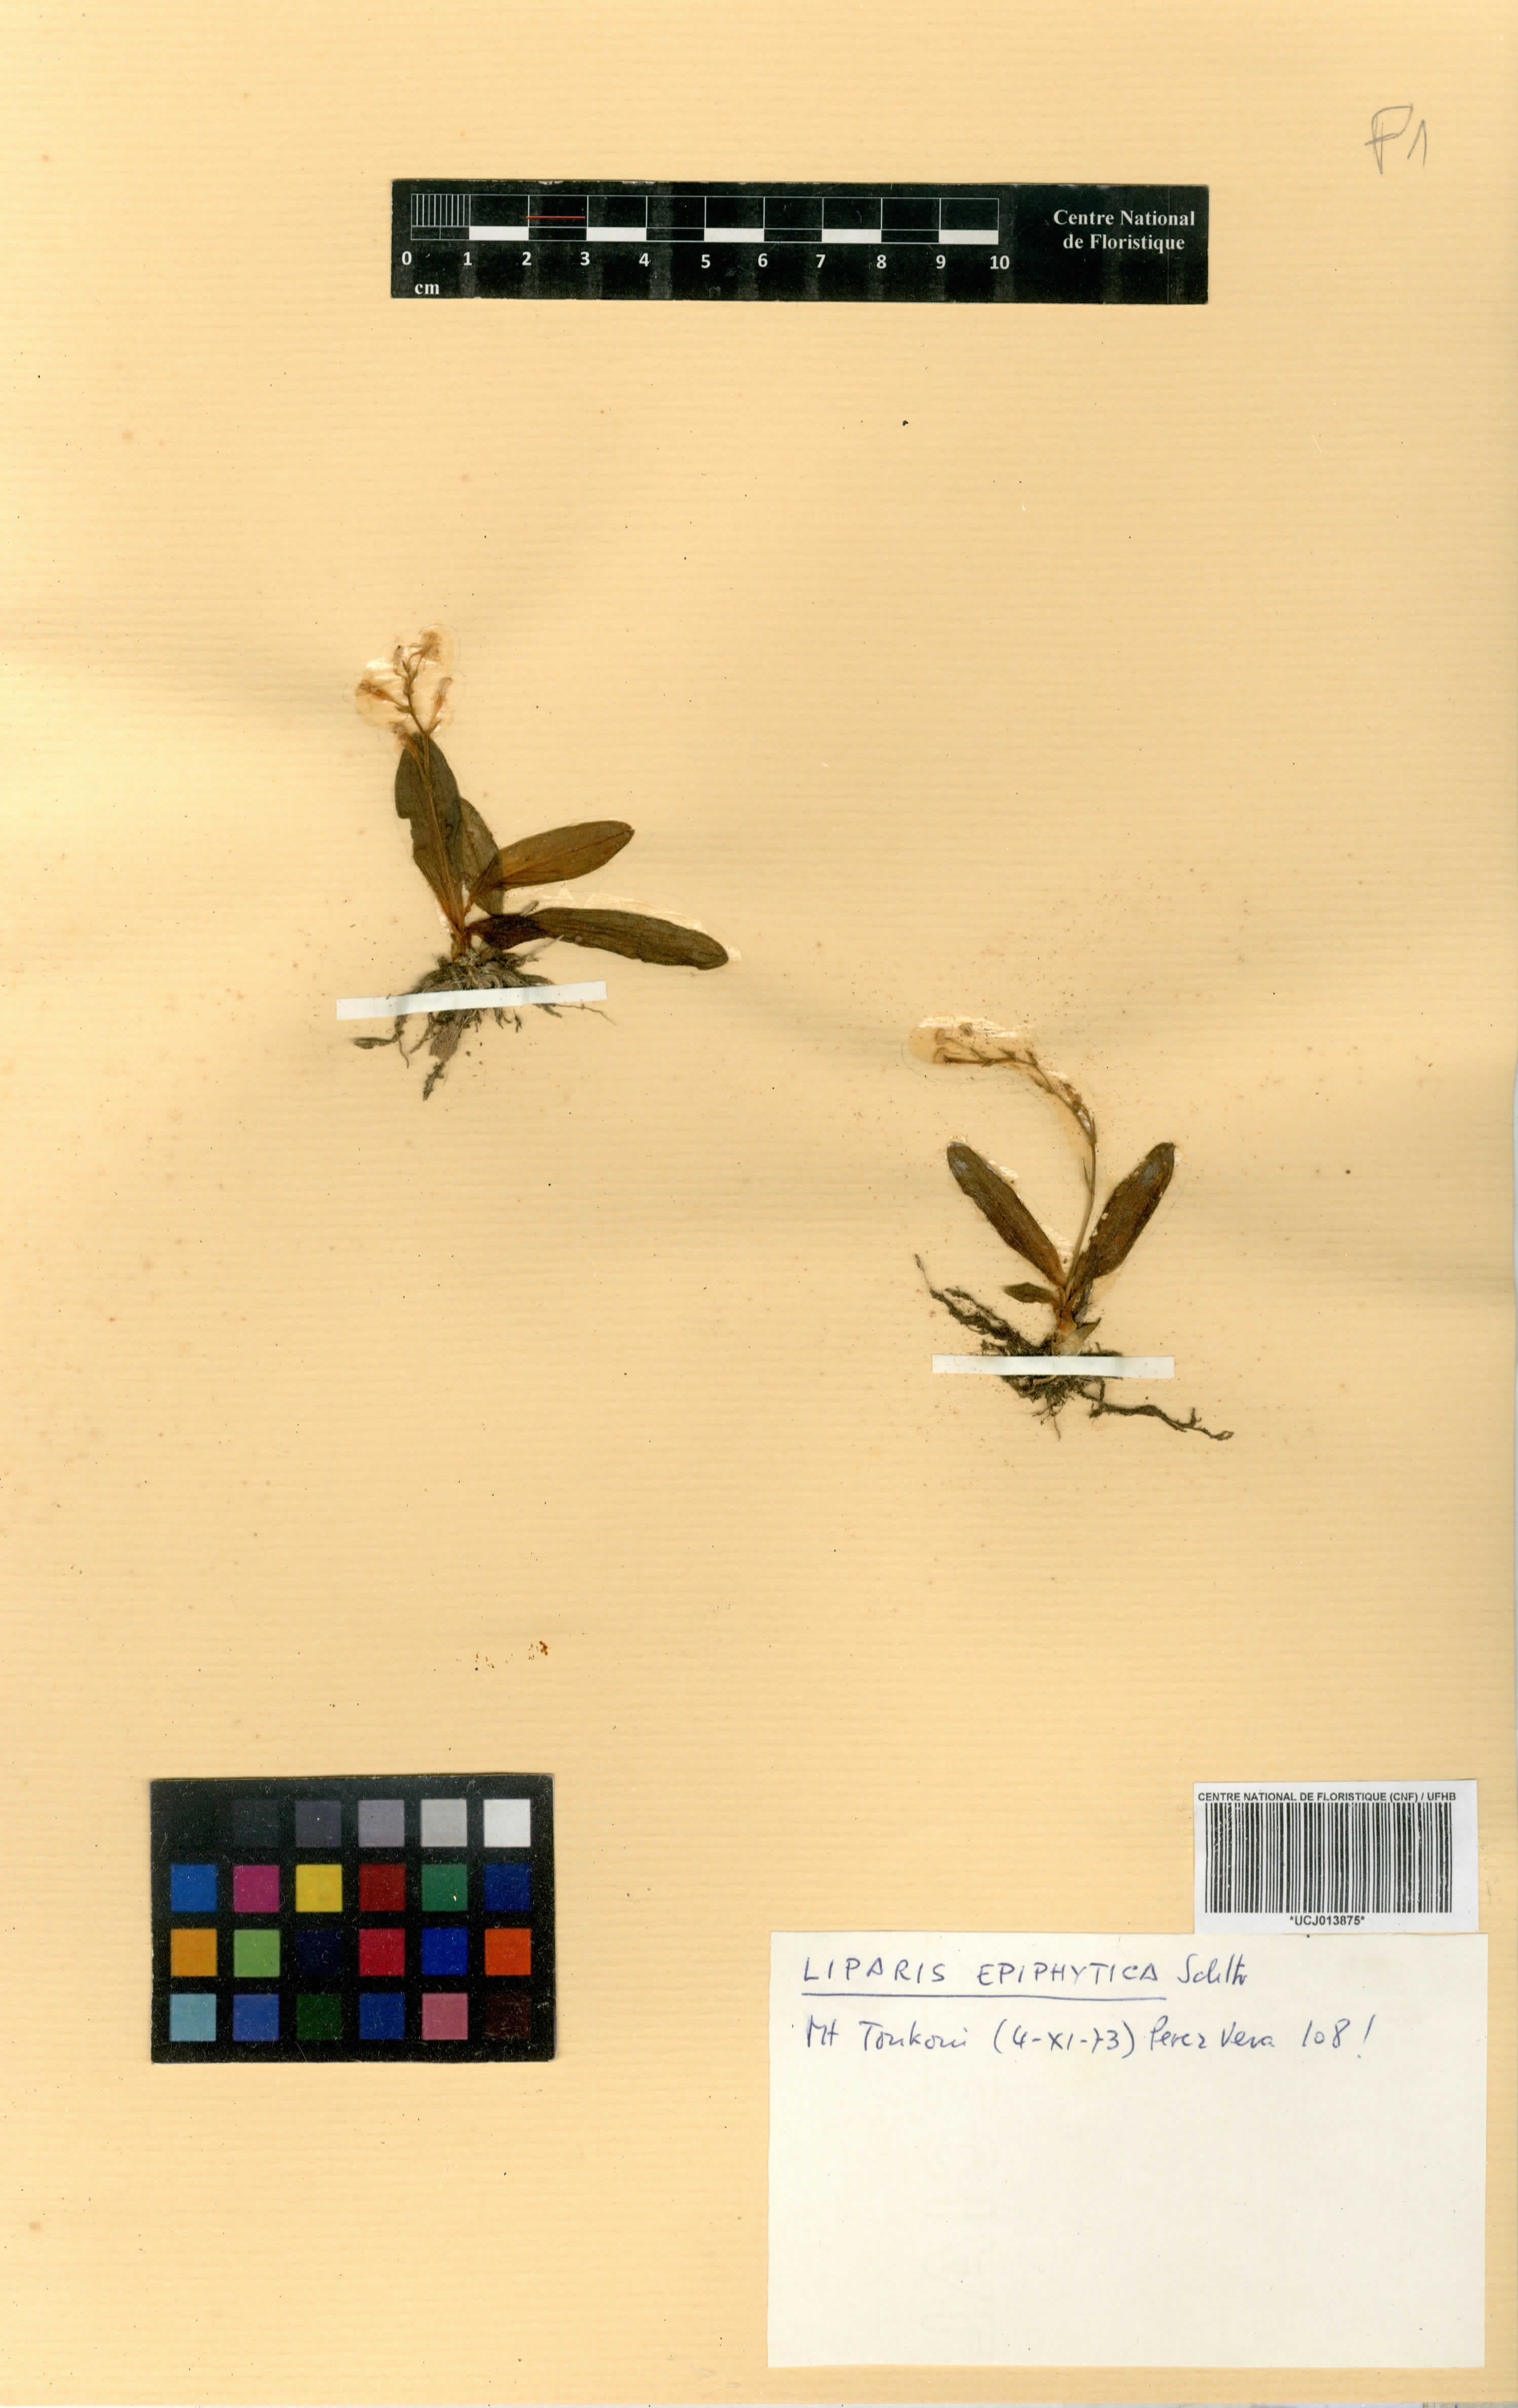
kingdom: Plantae
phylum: Tracheophyta
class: Liliopsida
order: Asparagales
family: Orchidaceae
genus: Liparis
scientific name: Liparis epiphytica
